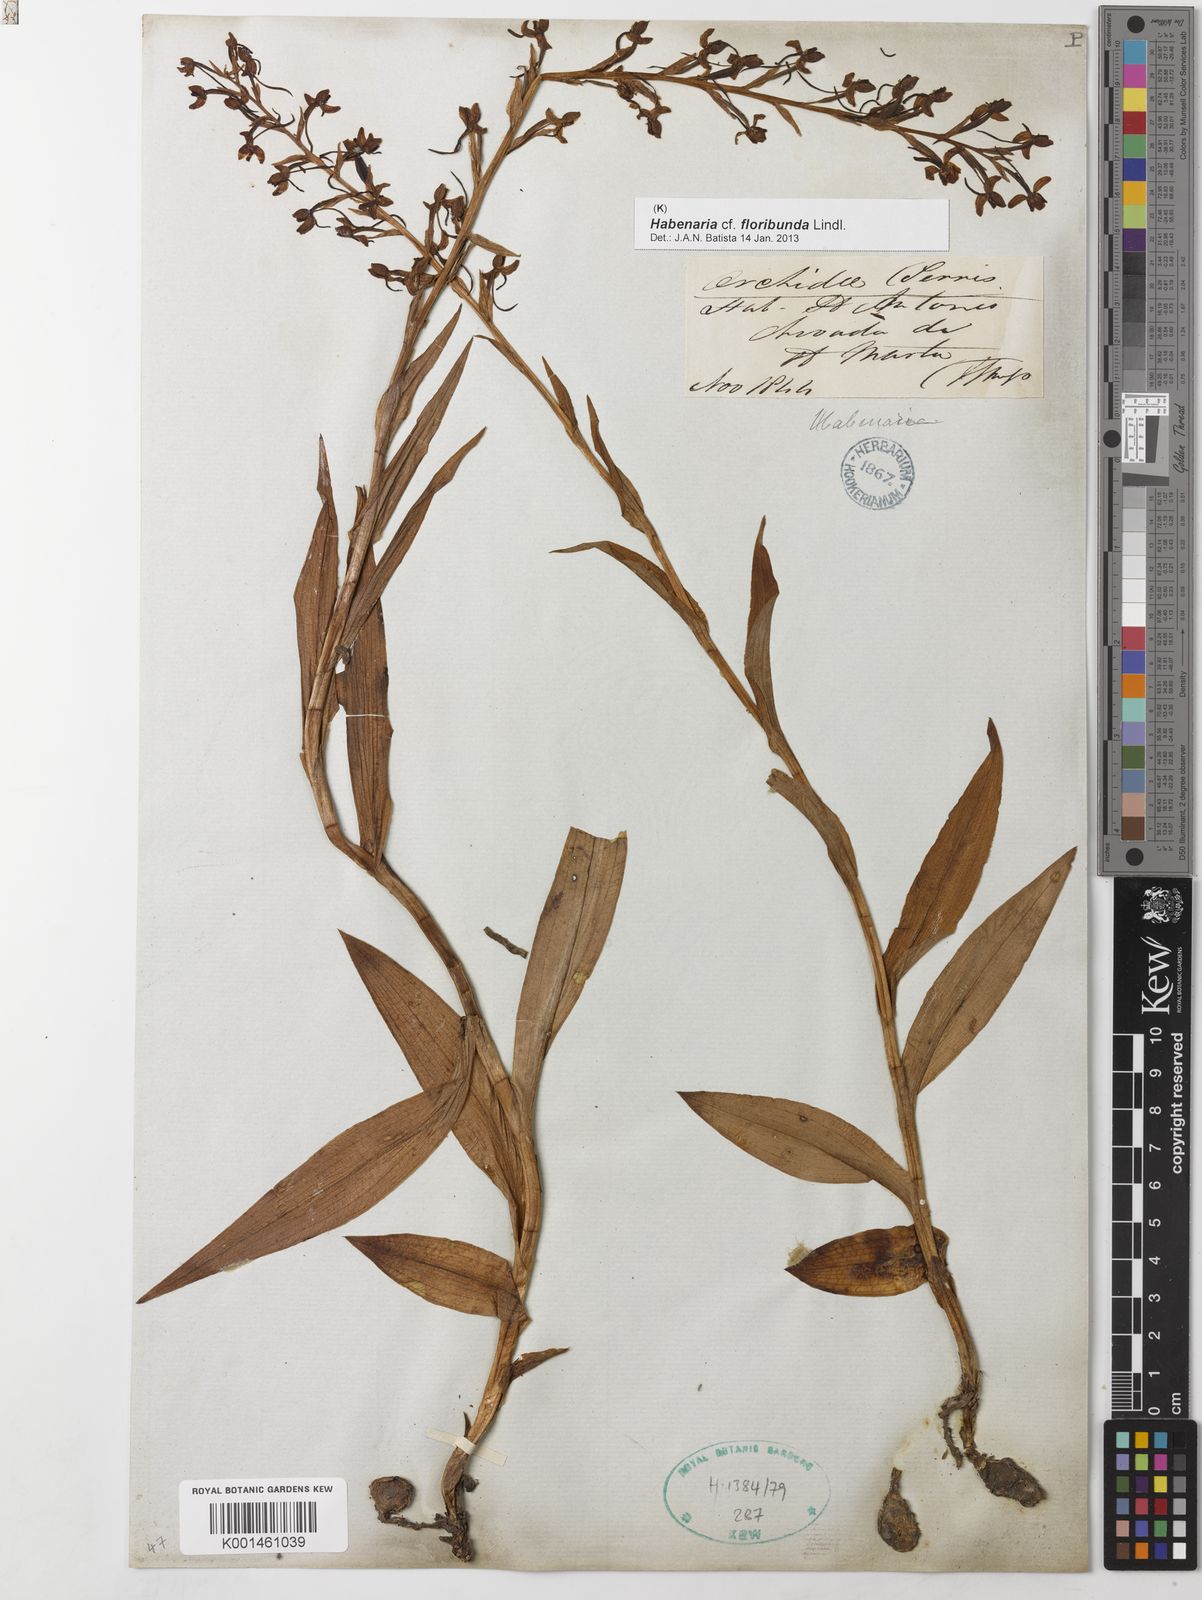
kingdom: Plantae
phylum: Tracheophyta
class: Liliopsida
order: Asparagales
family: Orchidaceae
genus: Habenaria
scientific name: Habenaria floribunda
